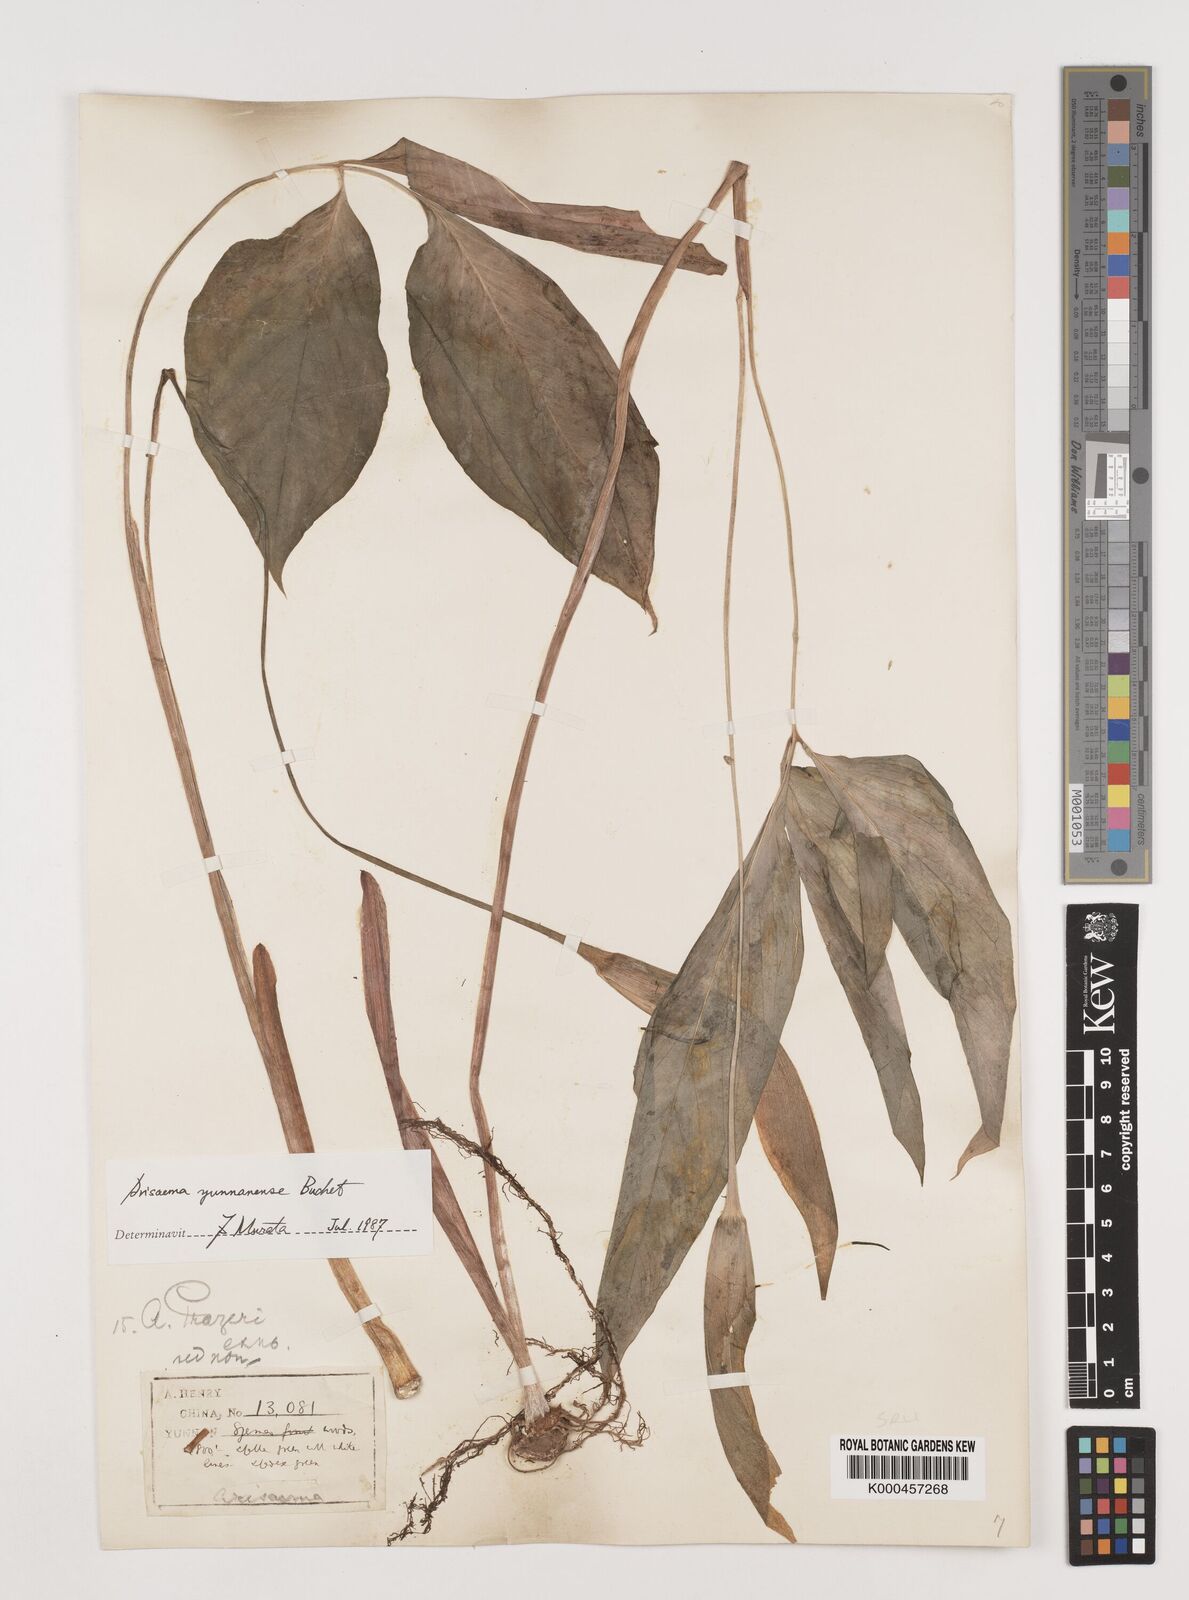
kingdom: Plantae
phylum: Tracheophyta
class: Liliopsida
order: Alismatales
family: Araceae
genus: Arisaema
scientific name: Arisaema yunnanense
